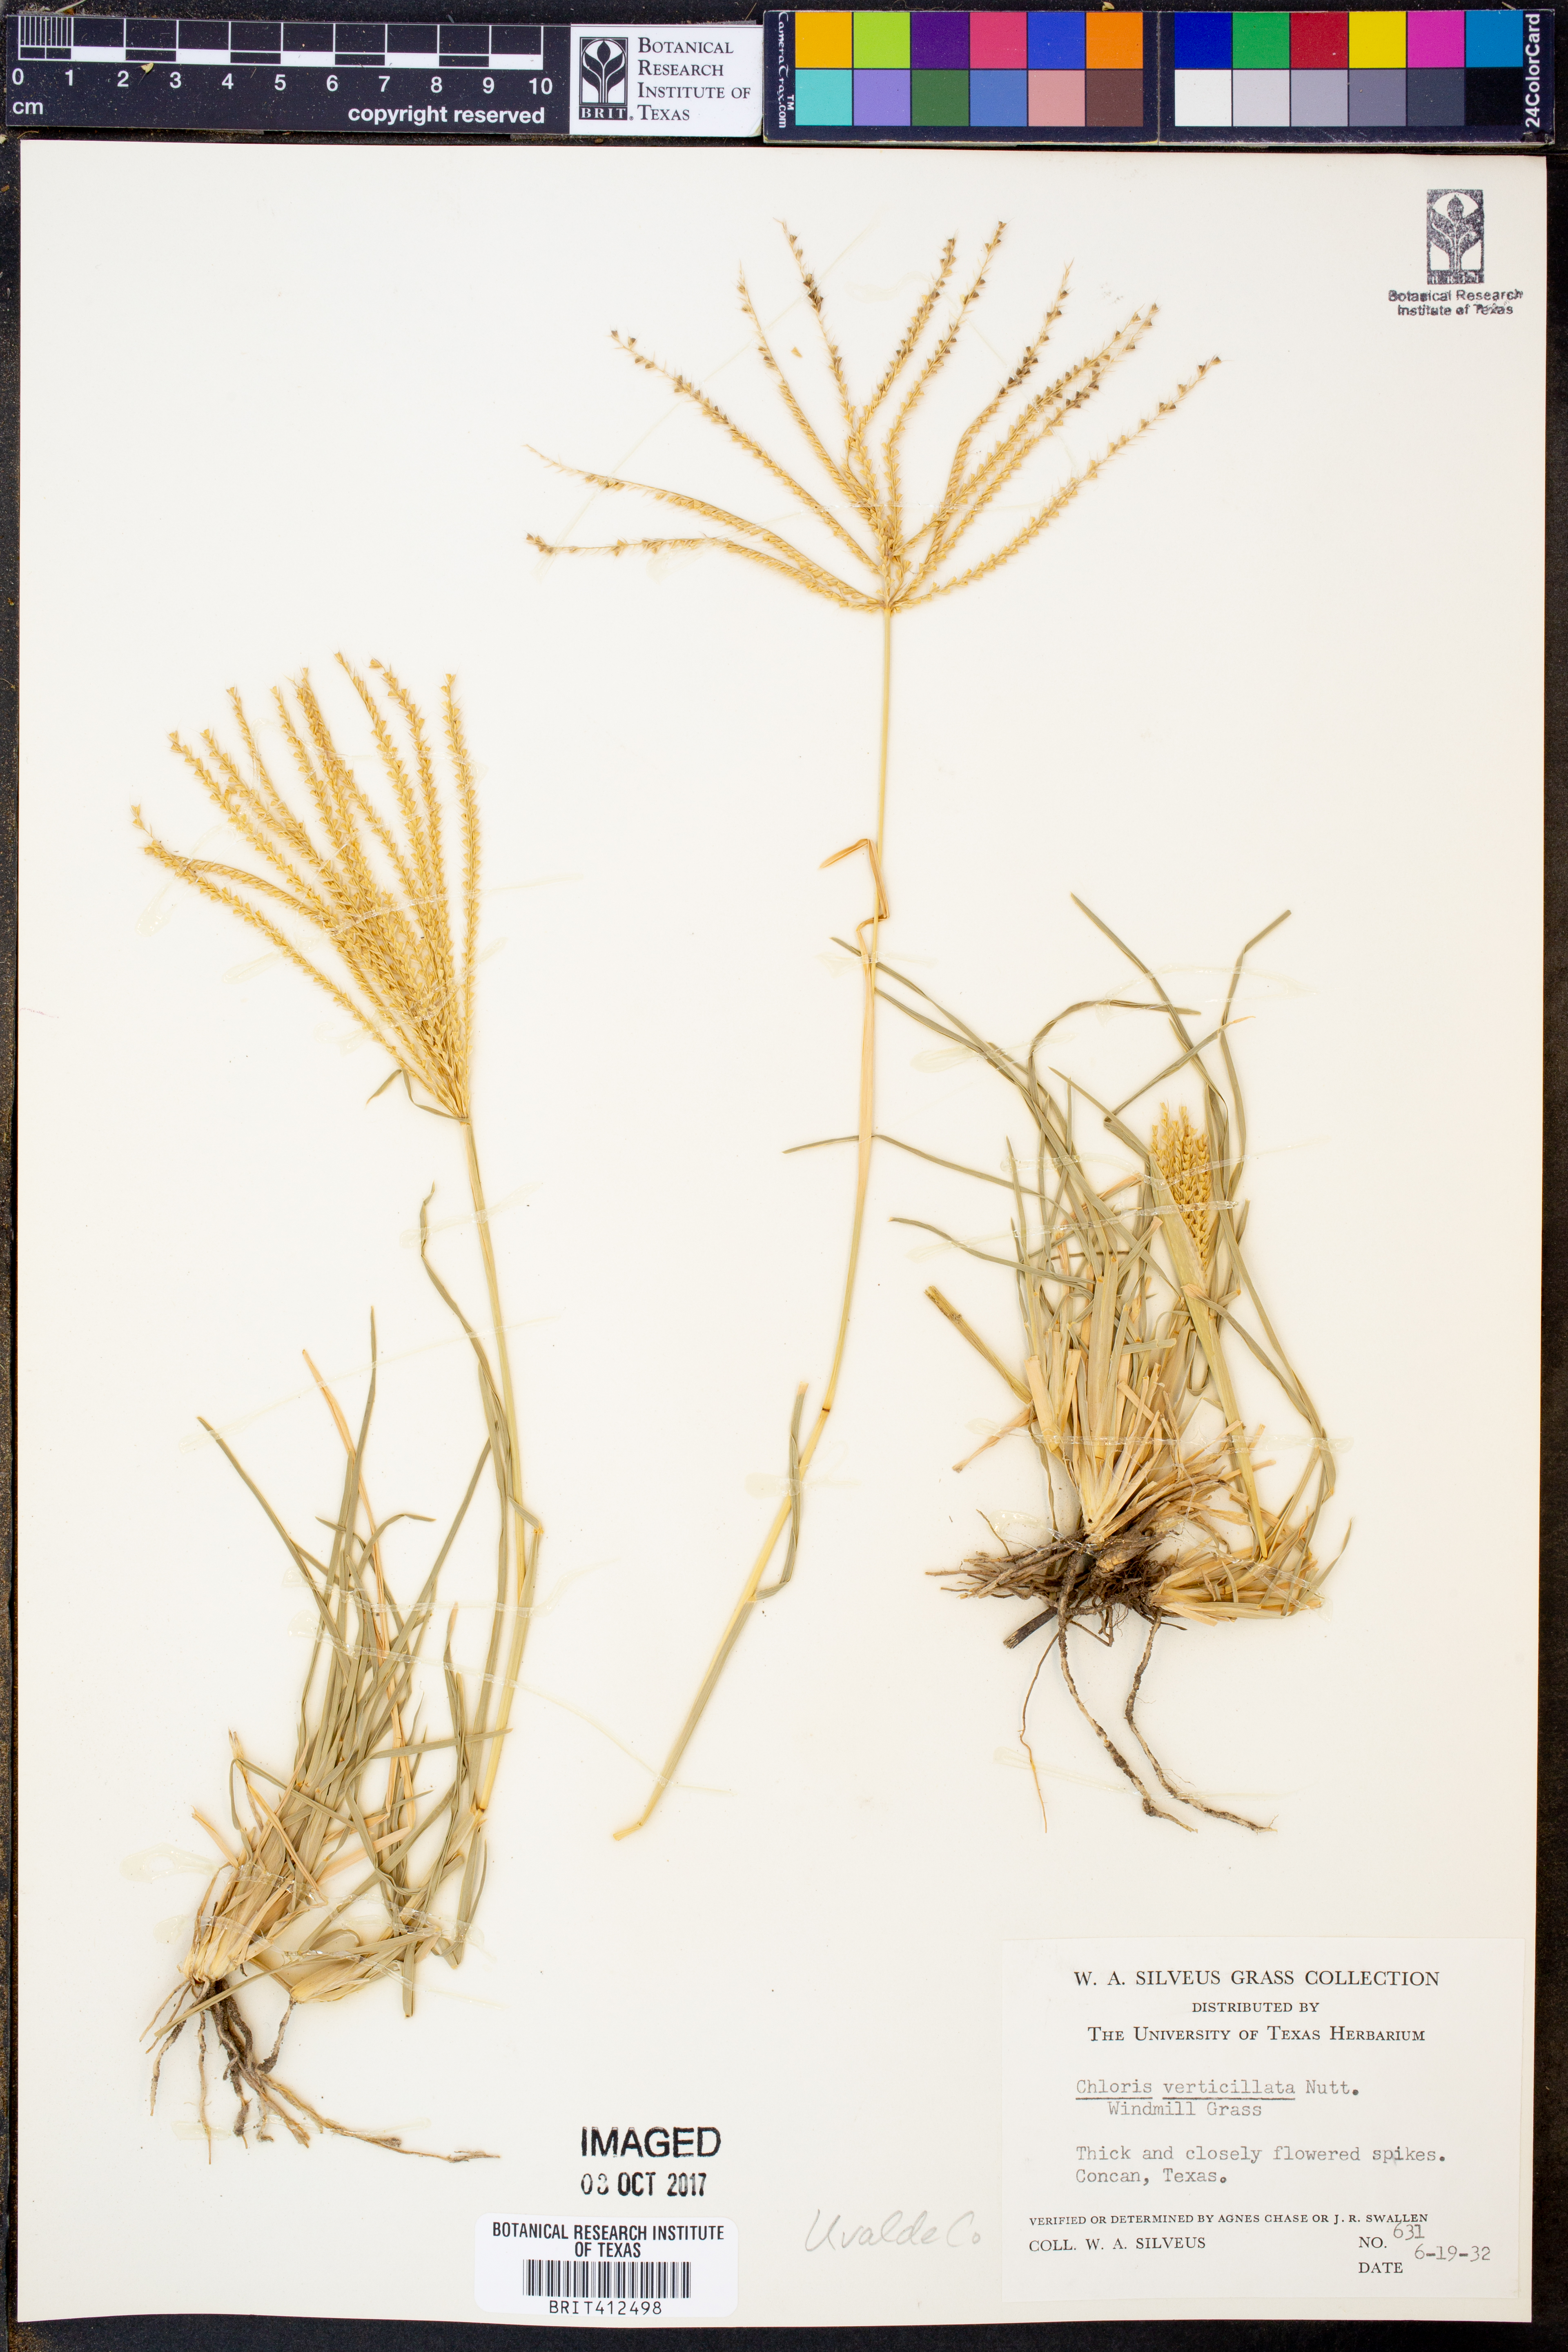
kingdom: Plantae
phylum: Tracheophyta
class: Liliopsida
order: Poales
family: Poaceae
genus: Chloris
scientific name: Chloris verticillata
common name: Tumble windmill grass
